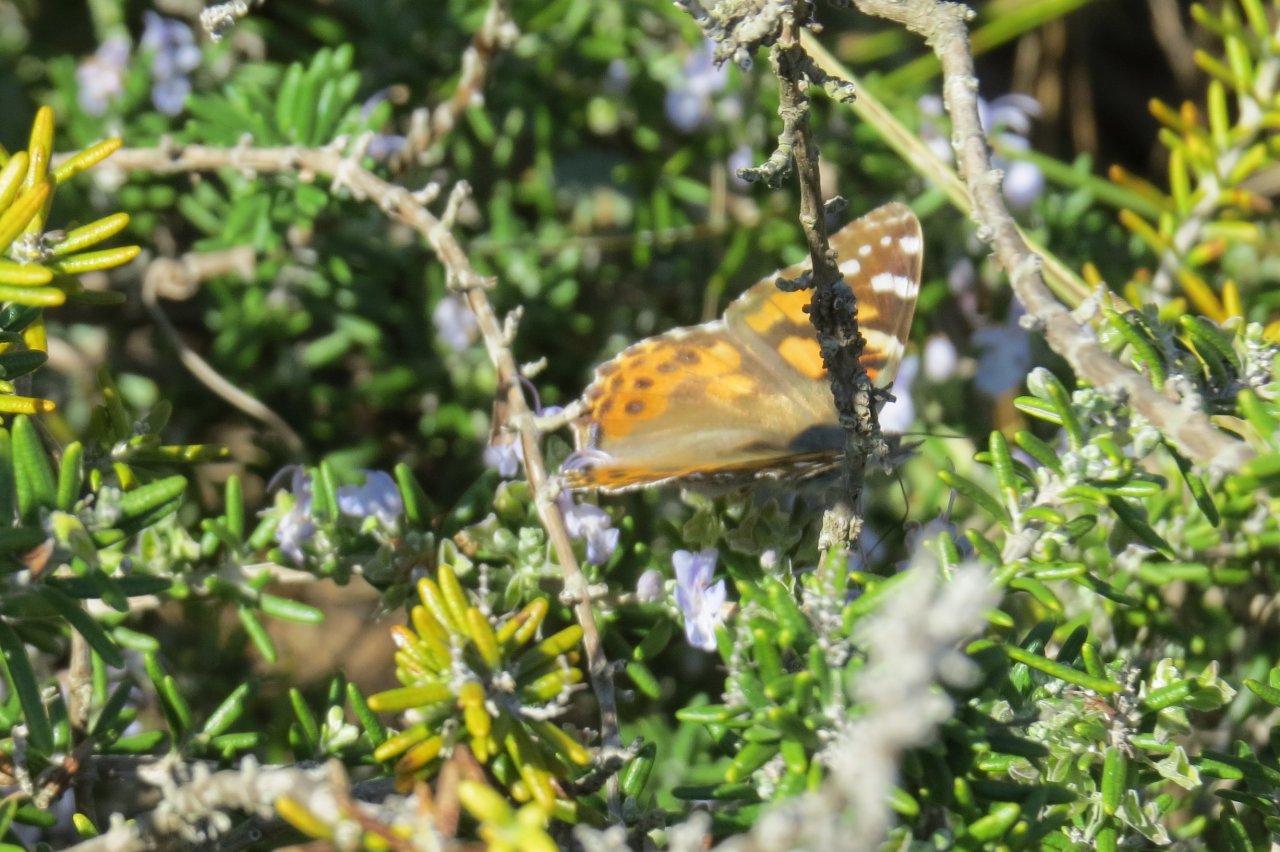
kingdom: Animalia
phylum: Arthropoda
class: Insecta
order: Lepidoptera
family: Nymphalidae
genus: Vanessa
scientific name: Vanessa cardui
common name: Painted Lady
